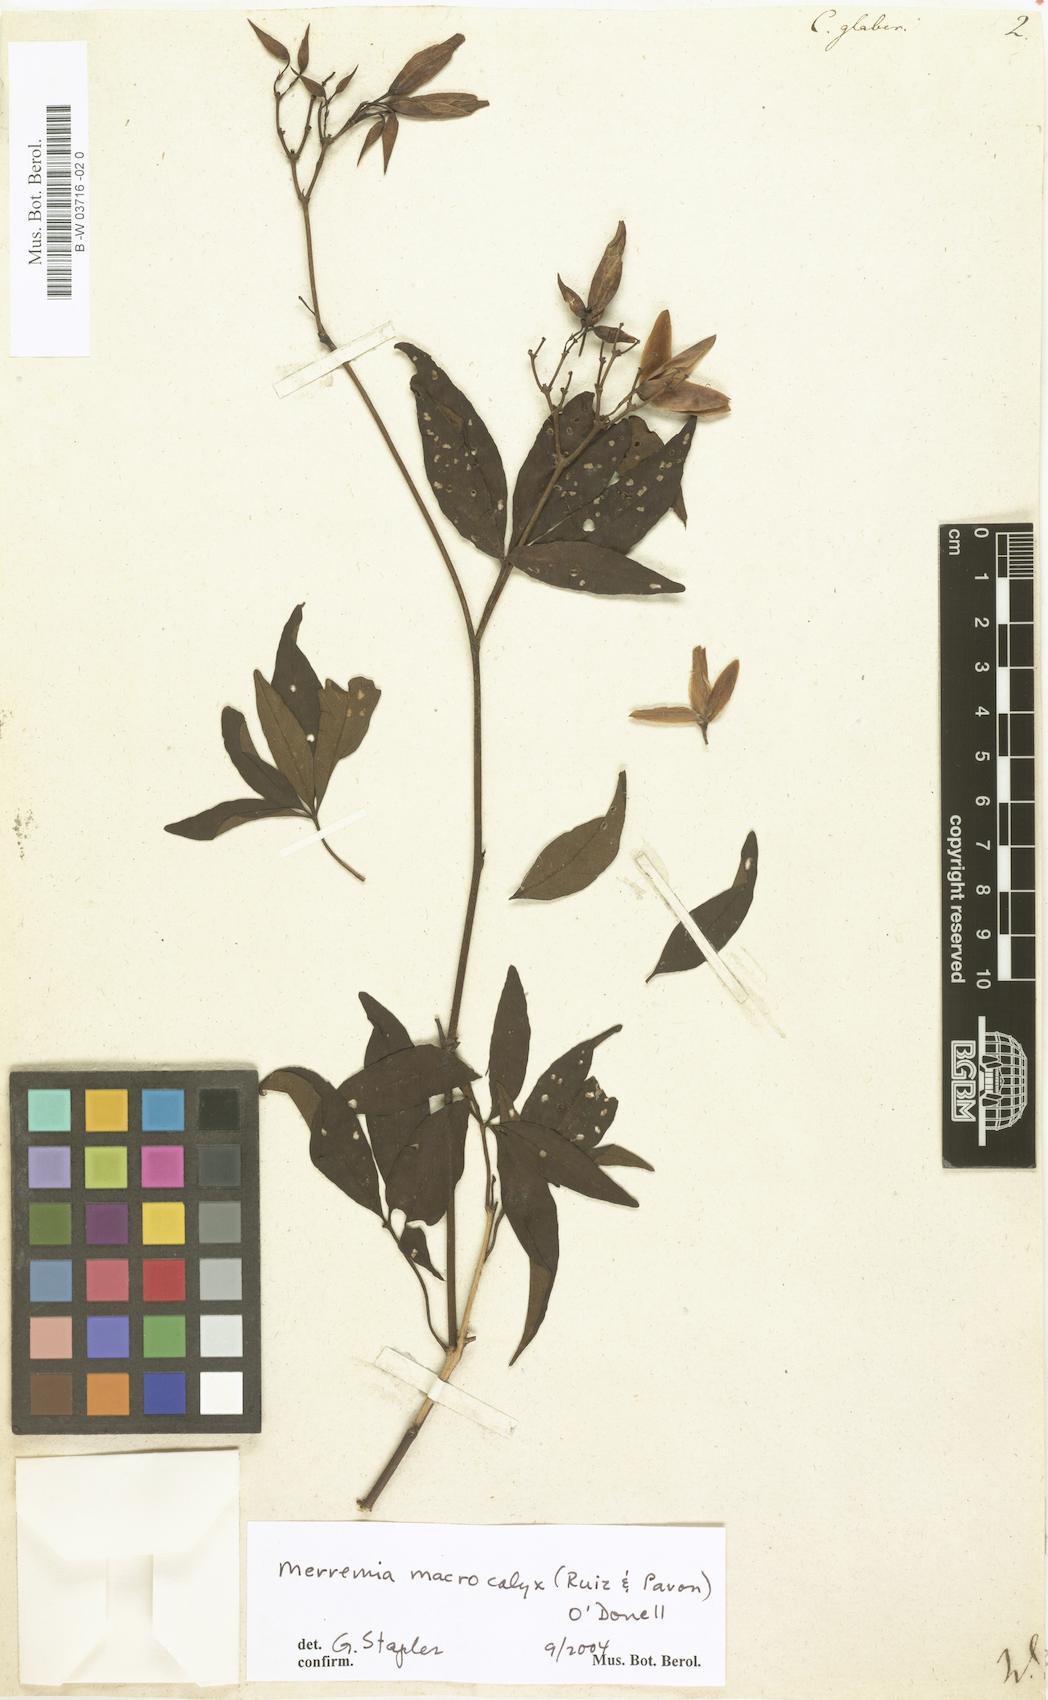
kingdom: Plantae
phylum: Tracheophyta
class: Magnoliopsida
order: Solanales
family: Convolvulaceae
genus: Distimake
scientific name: Distimake macrocalyx
